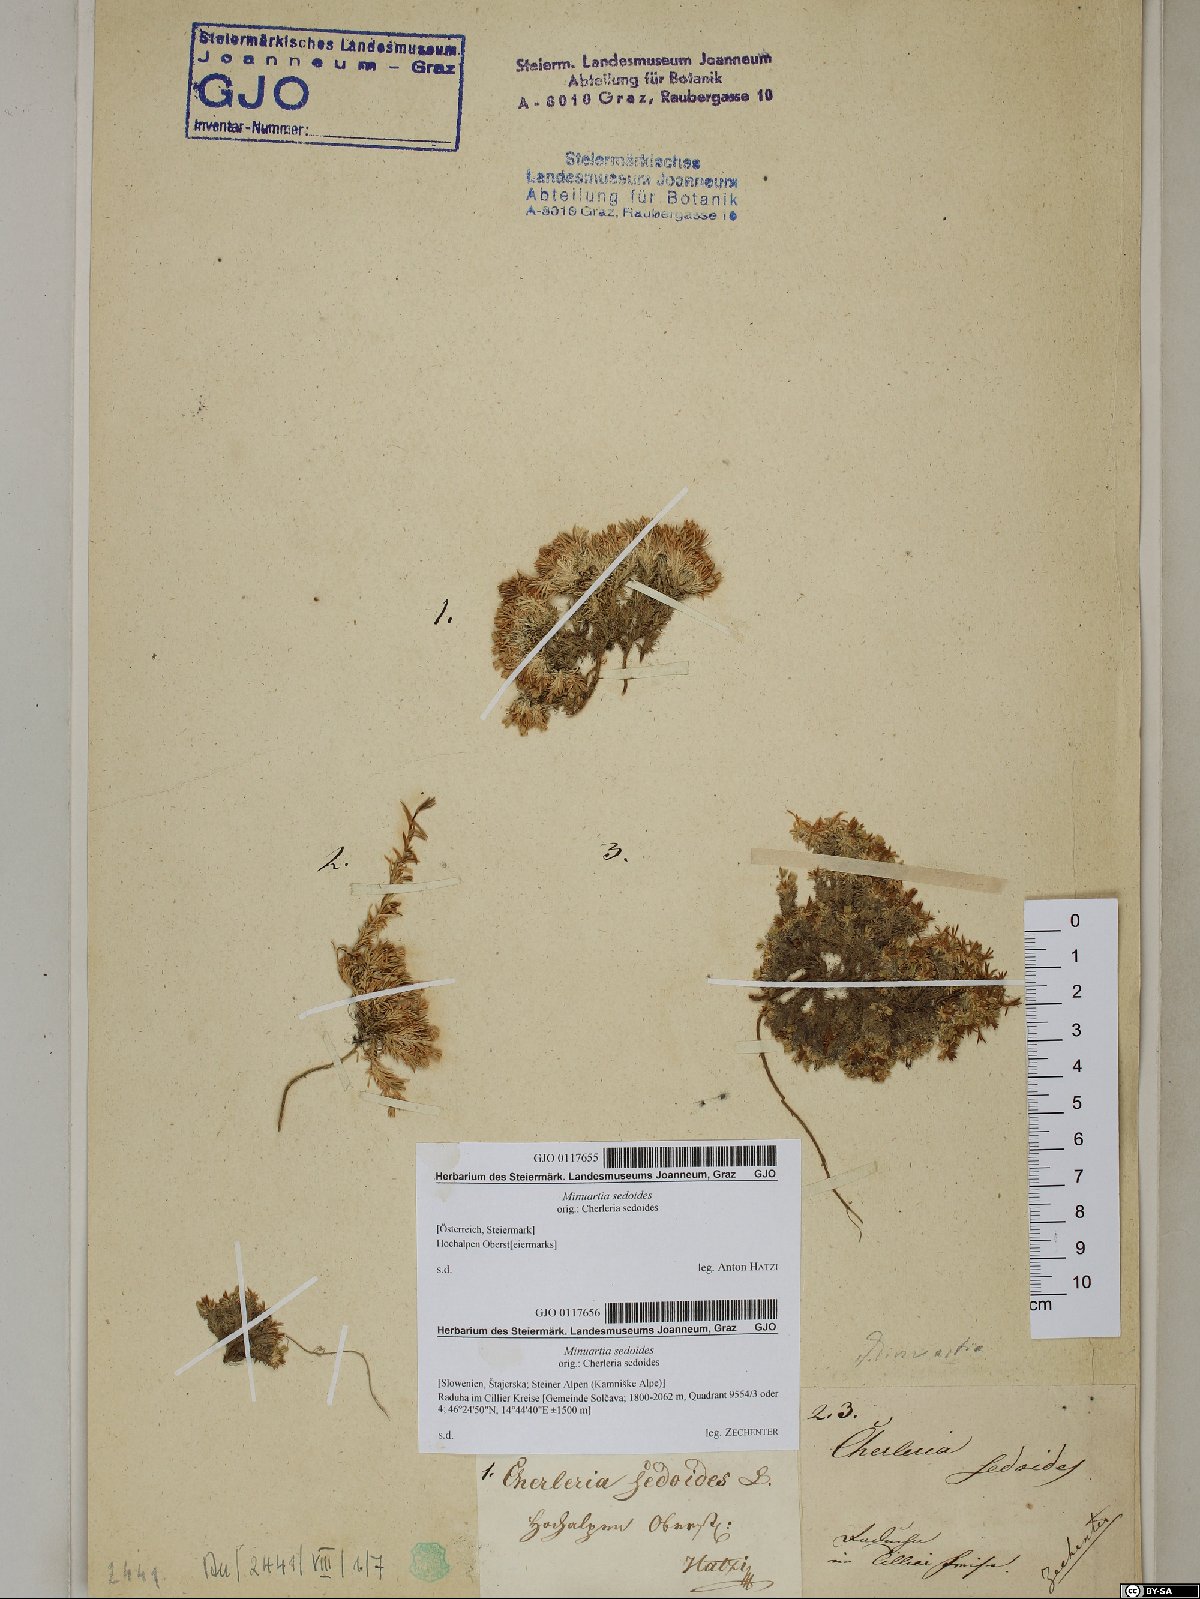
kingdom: Plantae
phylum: Tracheophyta
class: Magnoliopsida
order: Caryophyllales
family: Caryophyllaceae
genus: Cherleria
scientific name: Cherleria sedoides
